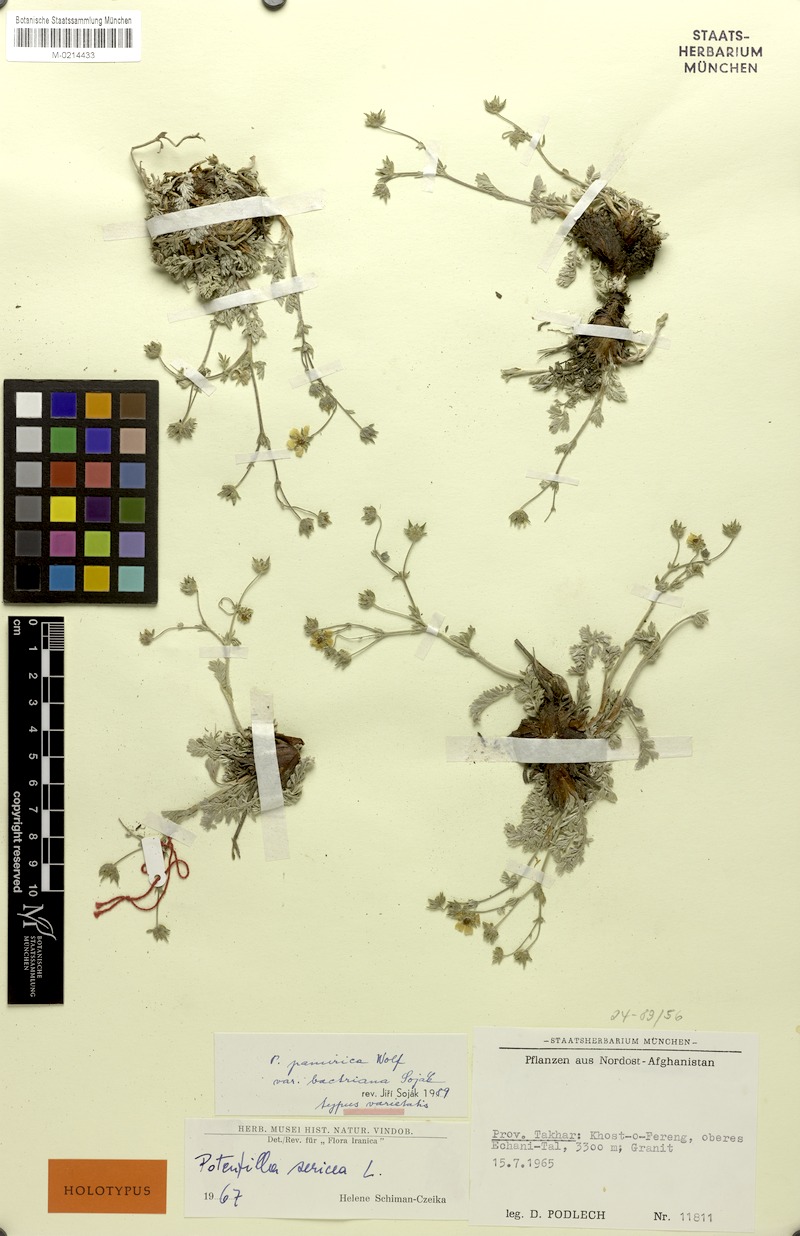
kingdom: Plantae
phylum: Tracheophyta
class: Magnoliopsida
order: Rosales
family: Rosaceae
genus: Potentilla
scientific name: Potentilla pamirica
